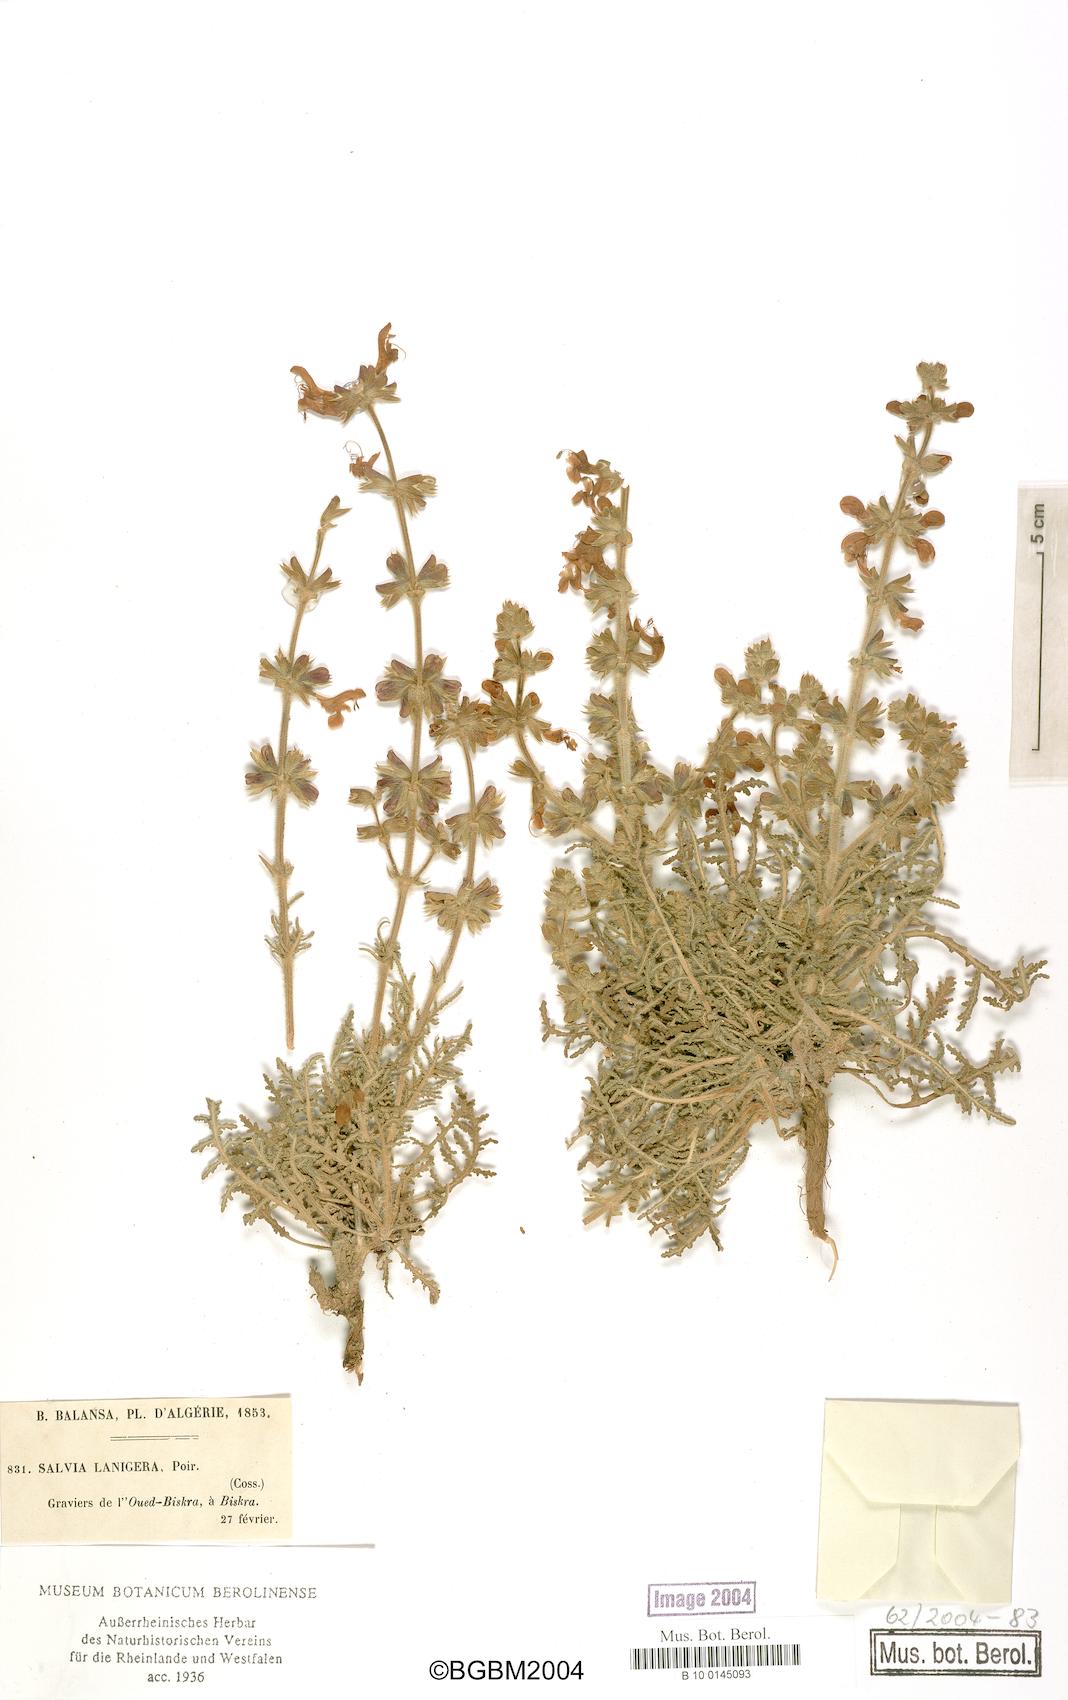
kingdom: Plantae
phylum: Tracheophyta
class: Magnoliopsida
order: Lamiales
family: Lamiaceae
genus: Salvia
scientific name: Salvia lanigera
